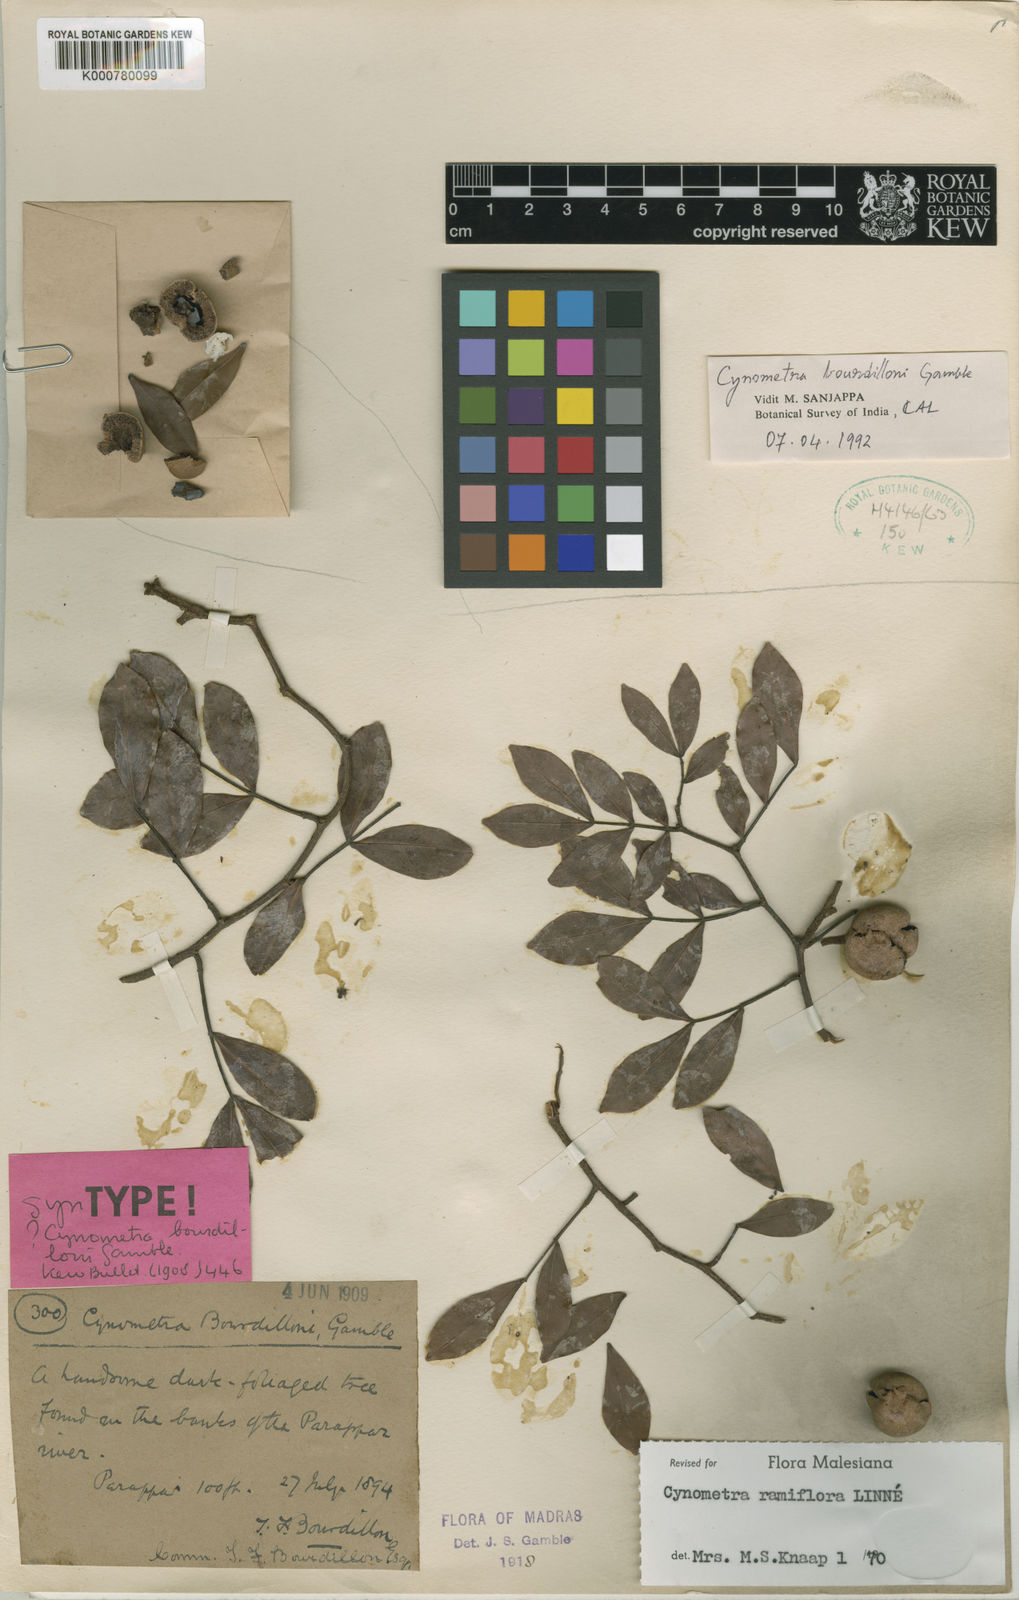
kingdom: Plantae
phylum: Tracheophyta
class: Magnoliopsida
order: Fabales
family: Fabaceae
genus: Cynometra
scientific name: Cynometra bourdillonii
